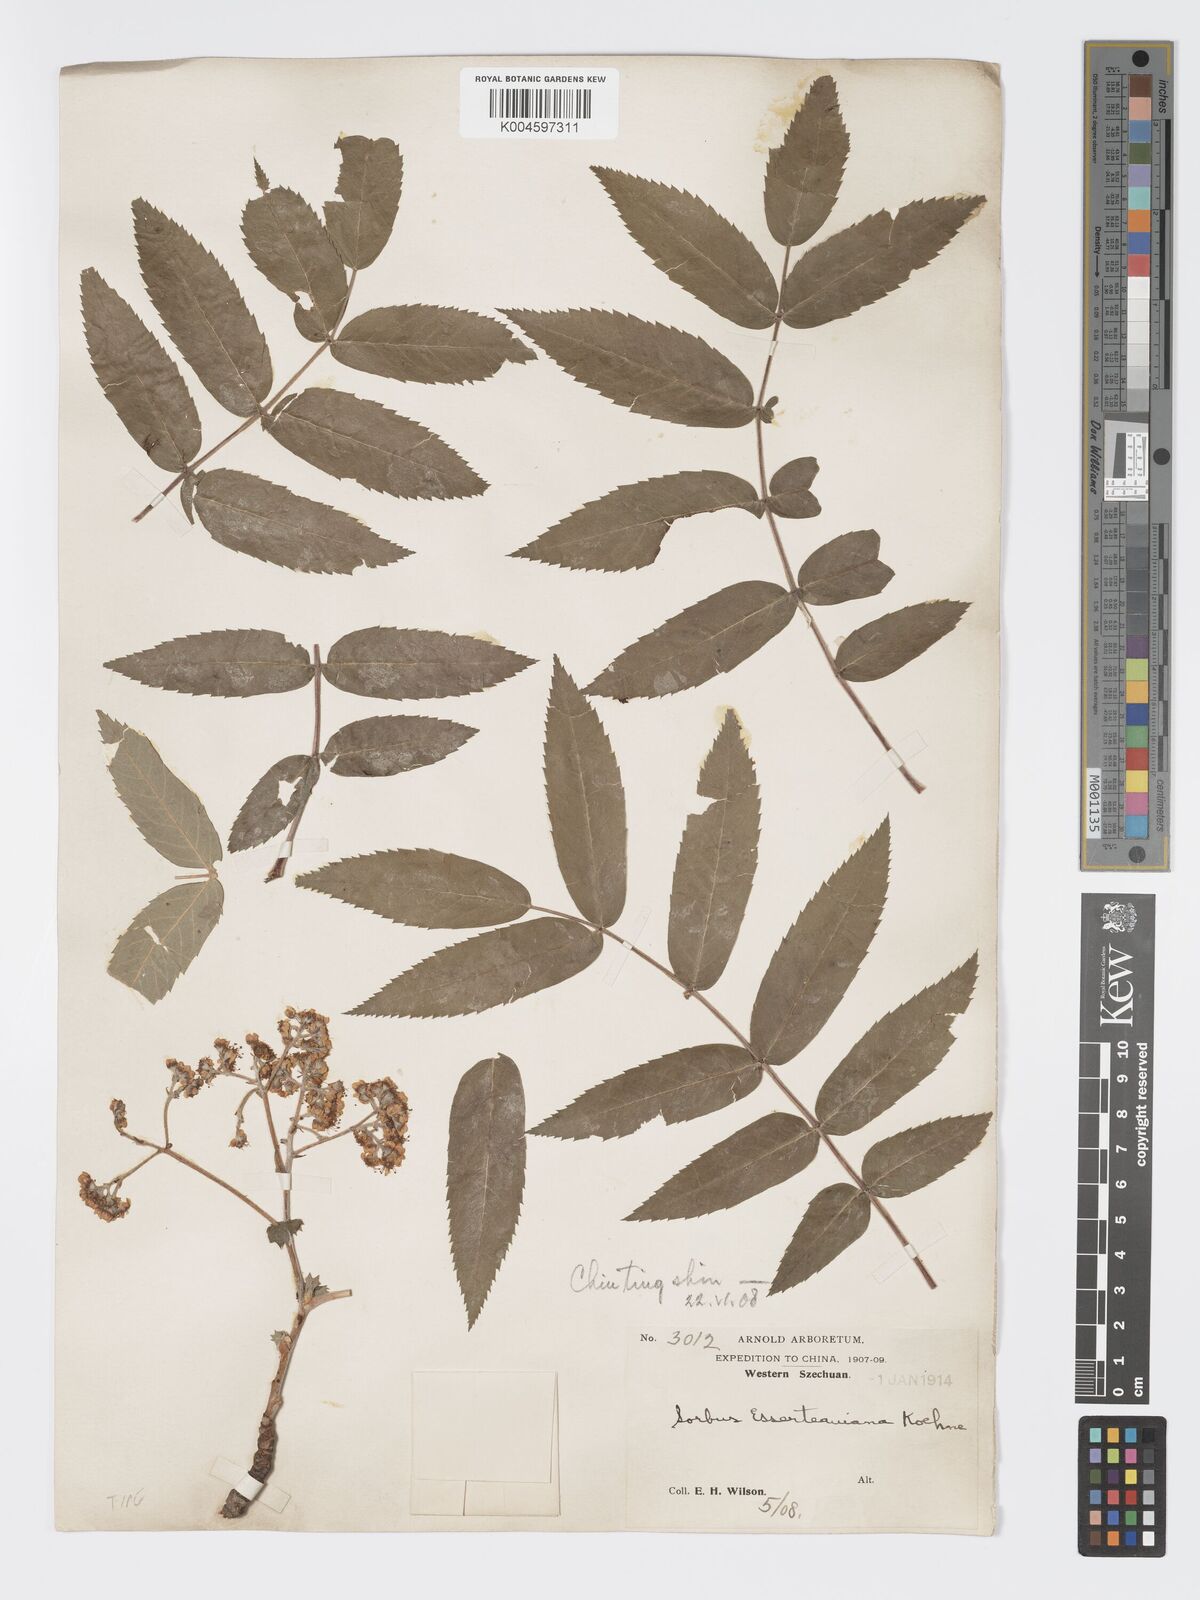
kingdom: Plantae
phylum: Tracheophyta
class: Magnoliopsida
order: Rosales
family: Rosaceae
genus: Sorbus
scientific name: Sorbus esserteauiana
